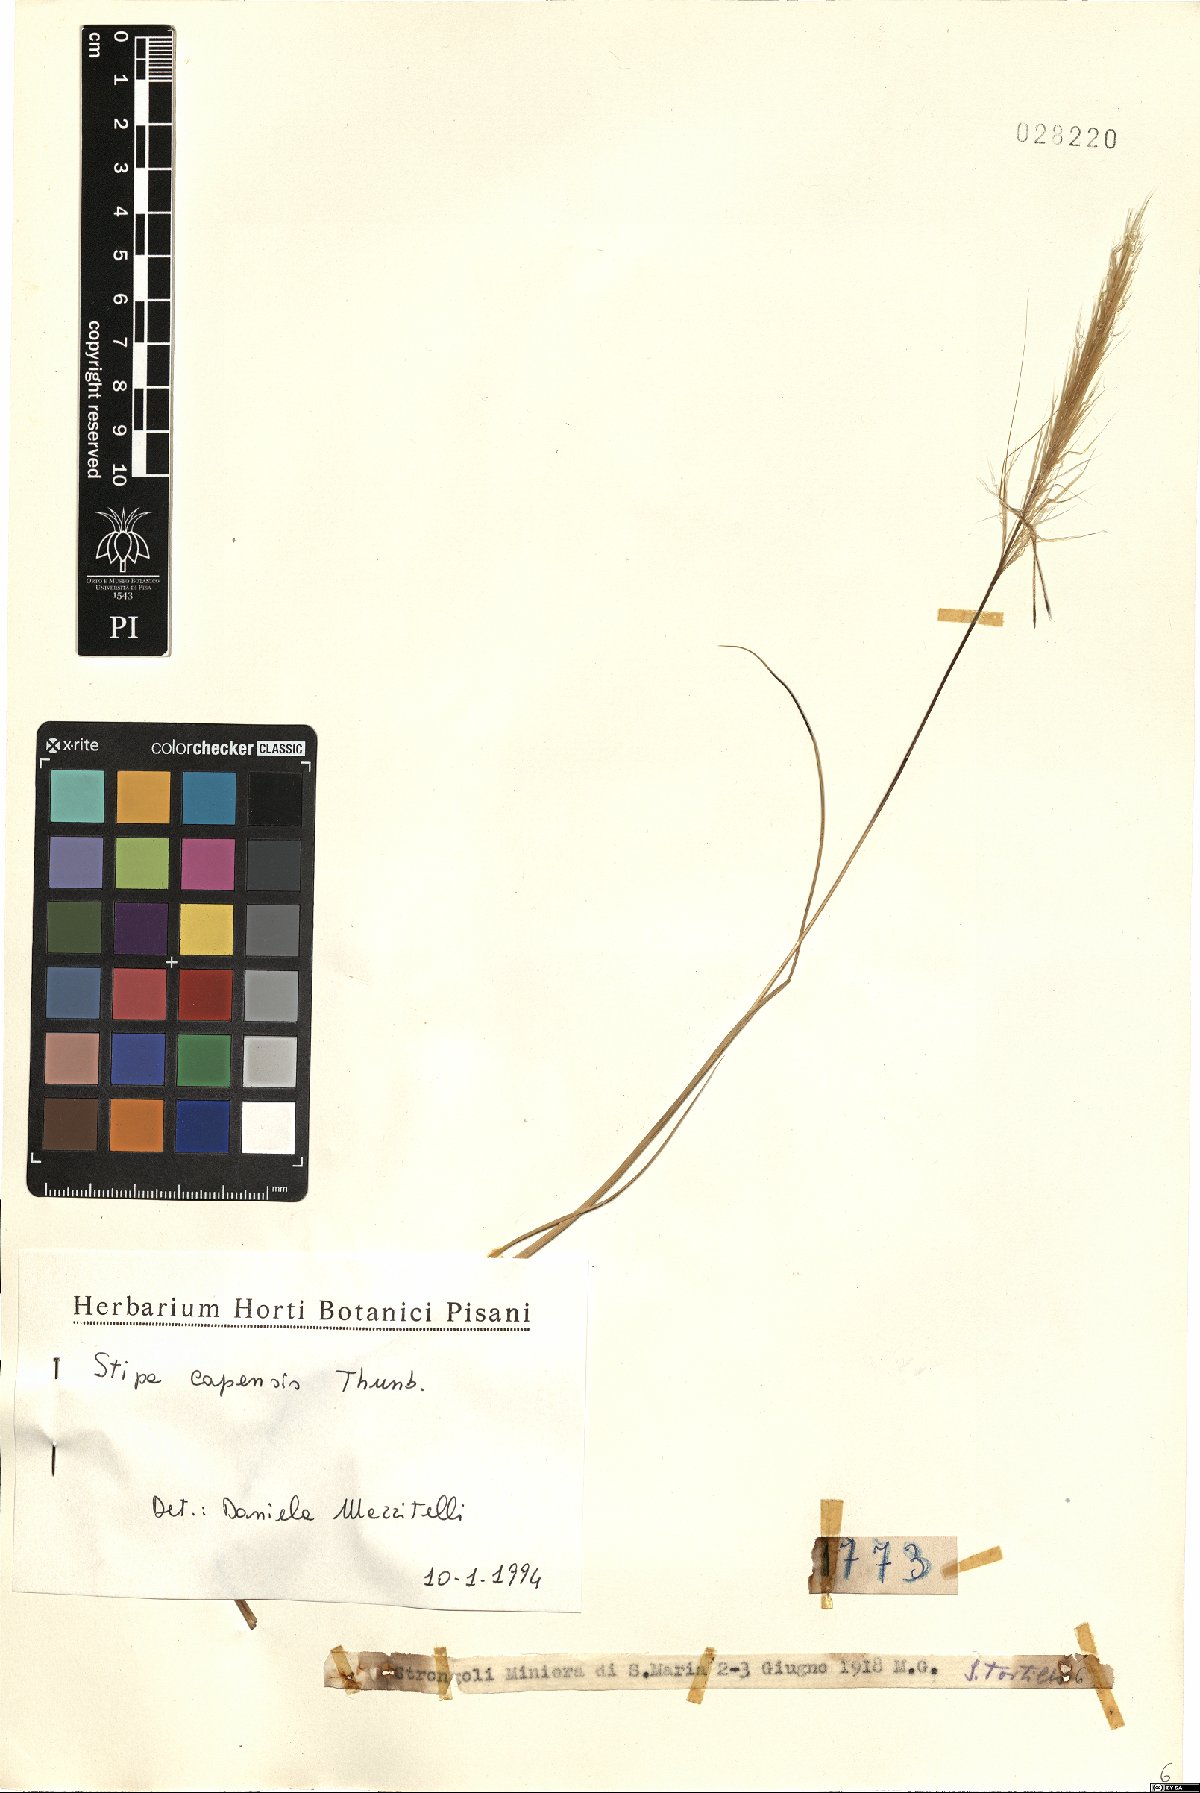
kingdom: Plantae
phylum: Tracheophyta
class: Liliopsida
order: Poales
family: Poaceae
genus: Stipellula
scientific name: Stipellula capensis
